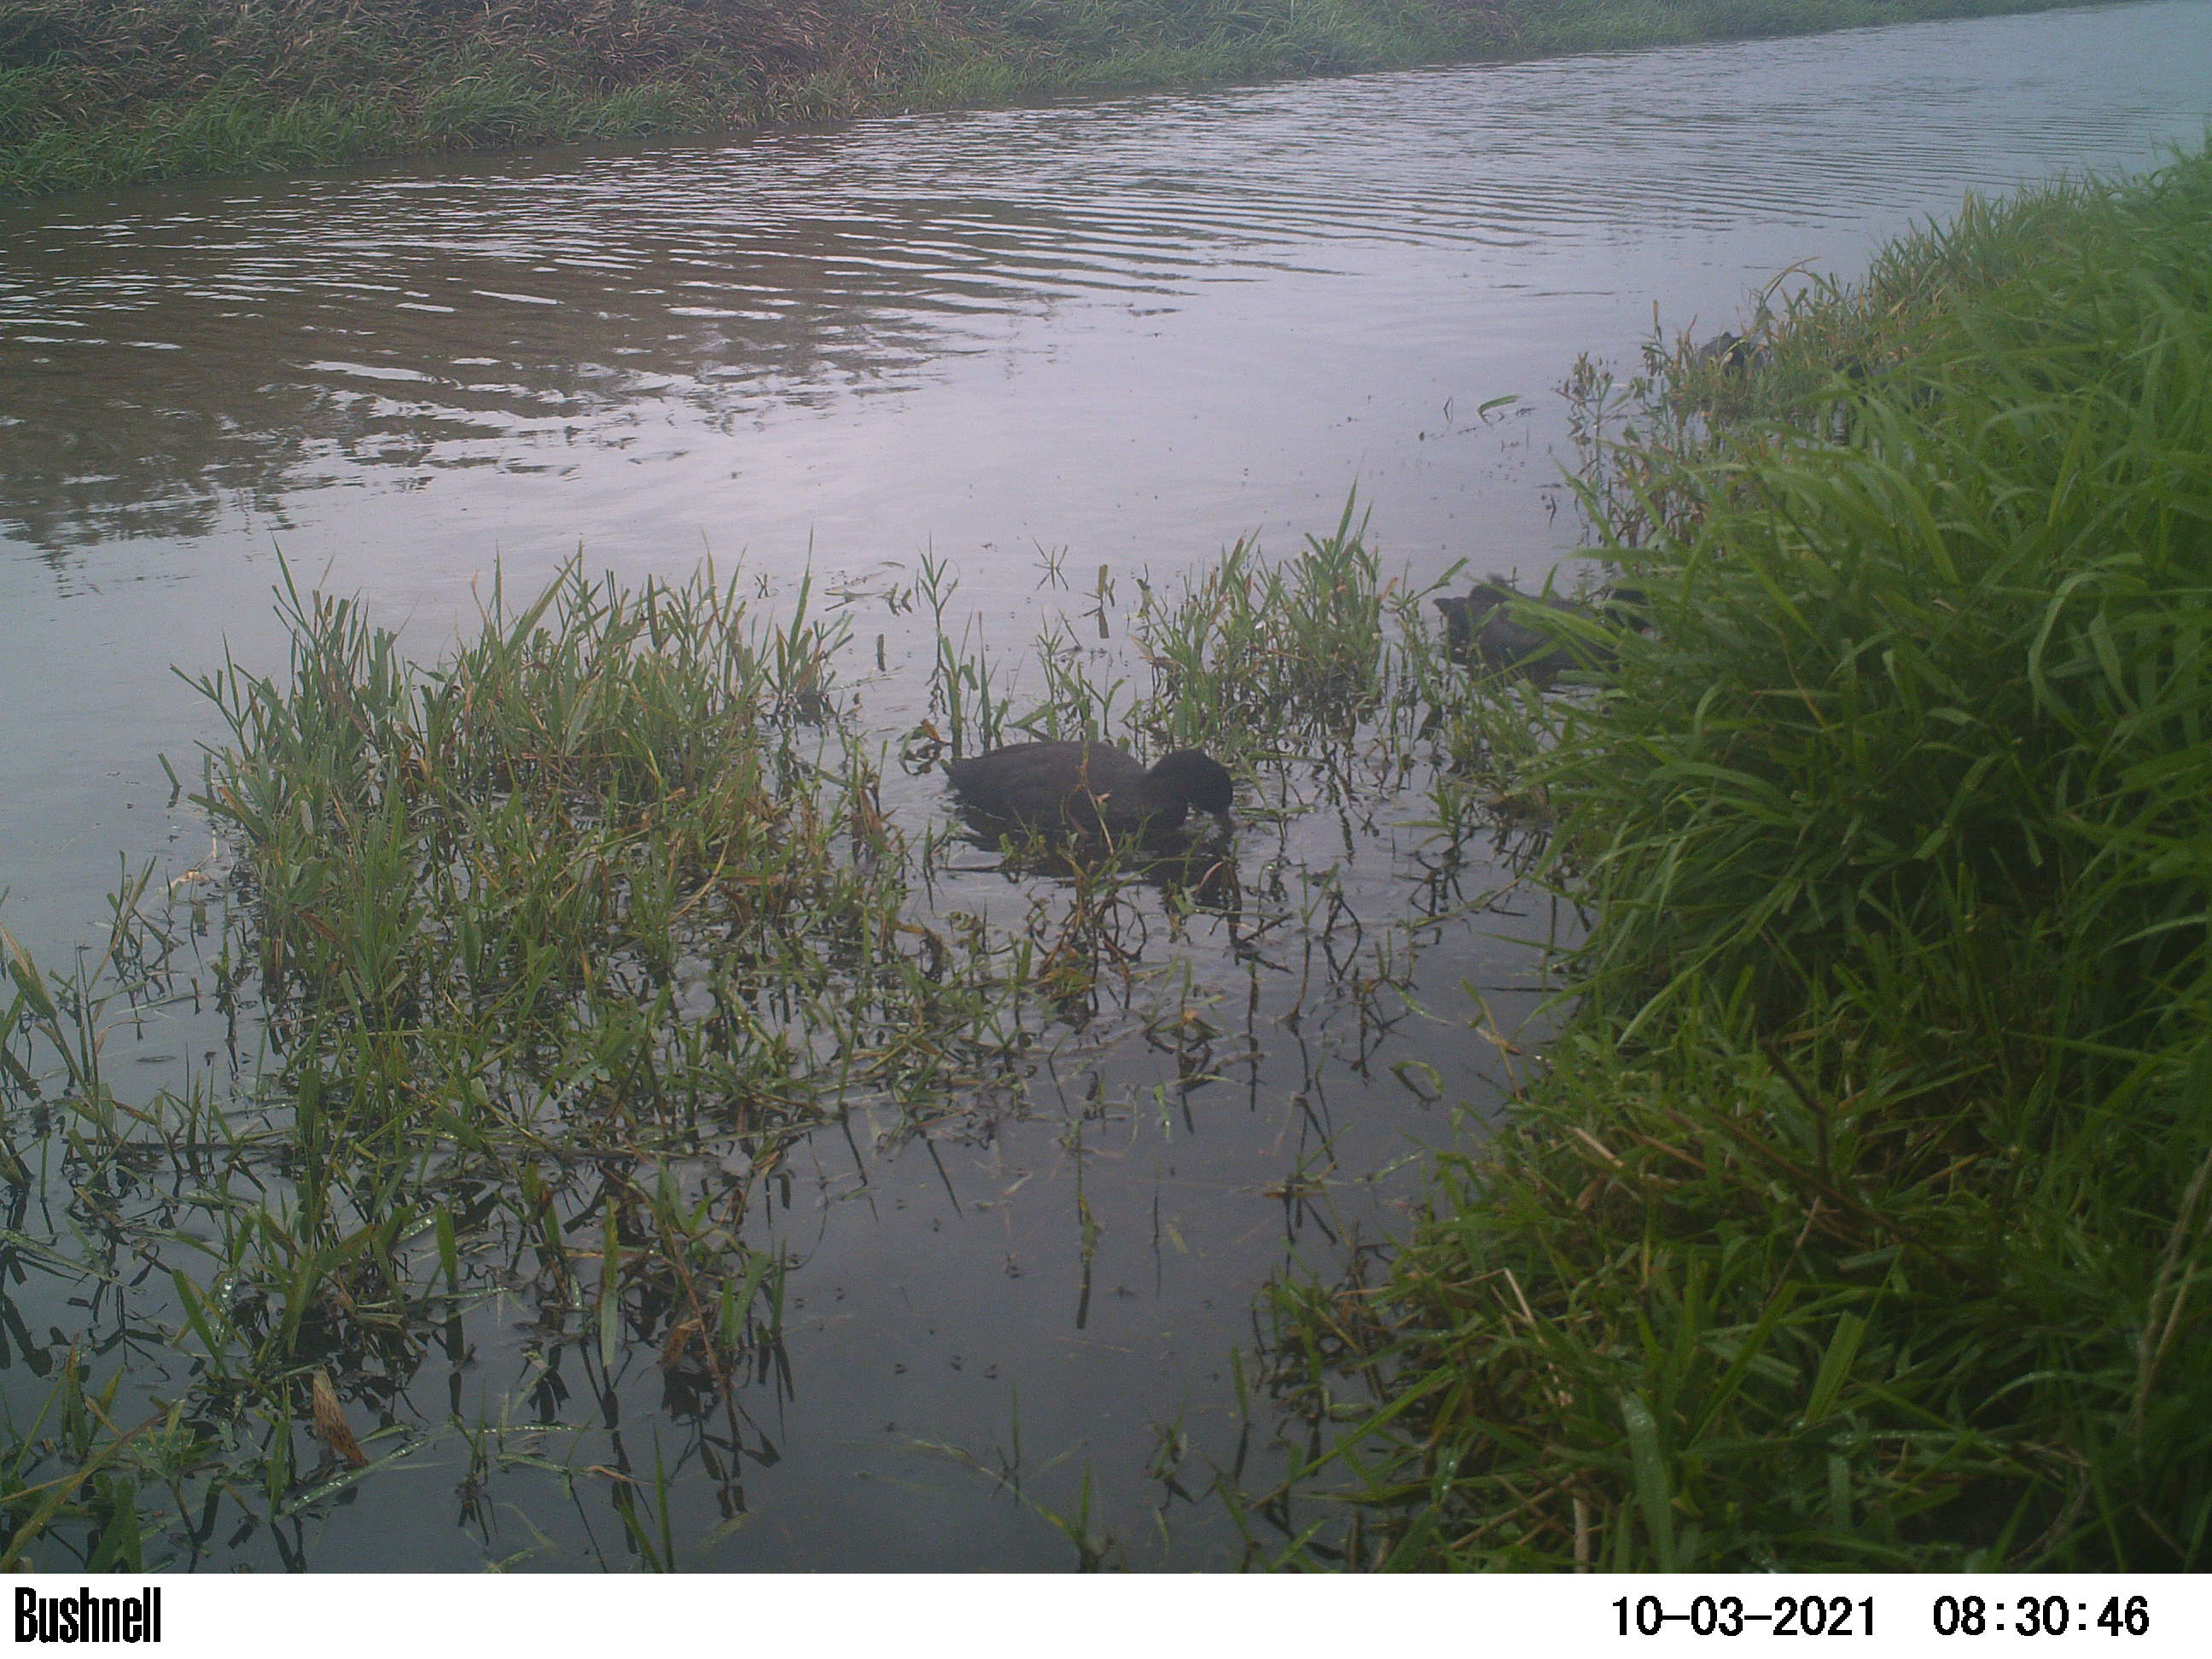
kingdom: Animalia
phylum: Chordata
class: Aves
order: Gruiformes
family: Rallidae
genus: Fulica
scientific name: Fulica atra
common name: Eurasian coot
